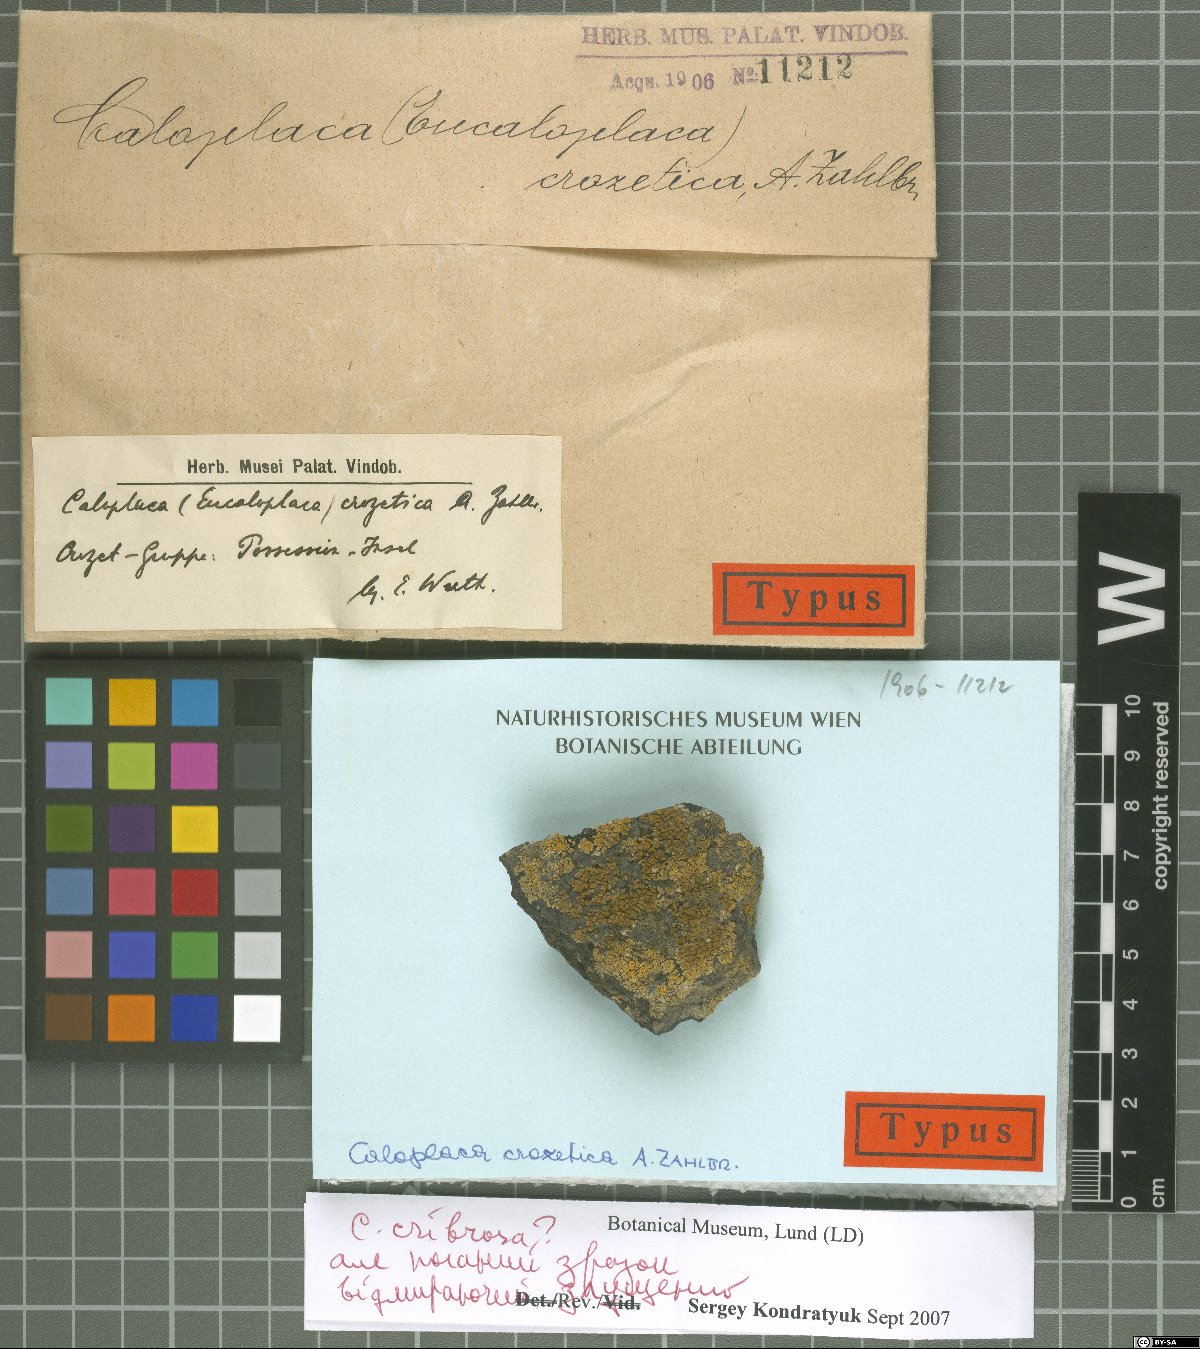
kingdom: Fungi
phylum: Ascomycota
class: Lecanoromycetes
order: Teloschistales
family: Teloschistaceae
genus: Kuettlingeria
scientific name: Kuettlingeria crozetica
